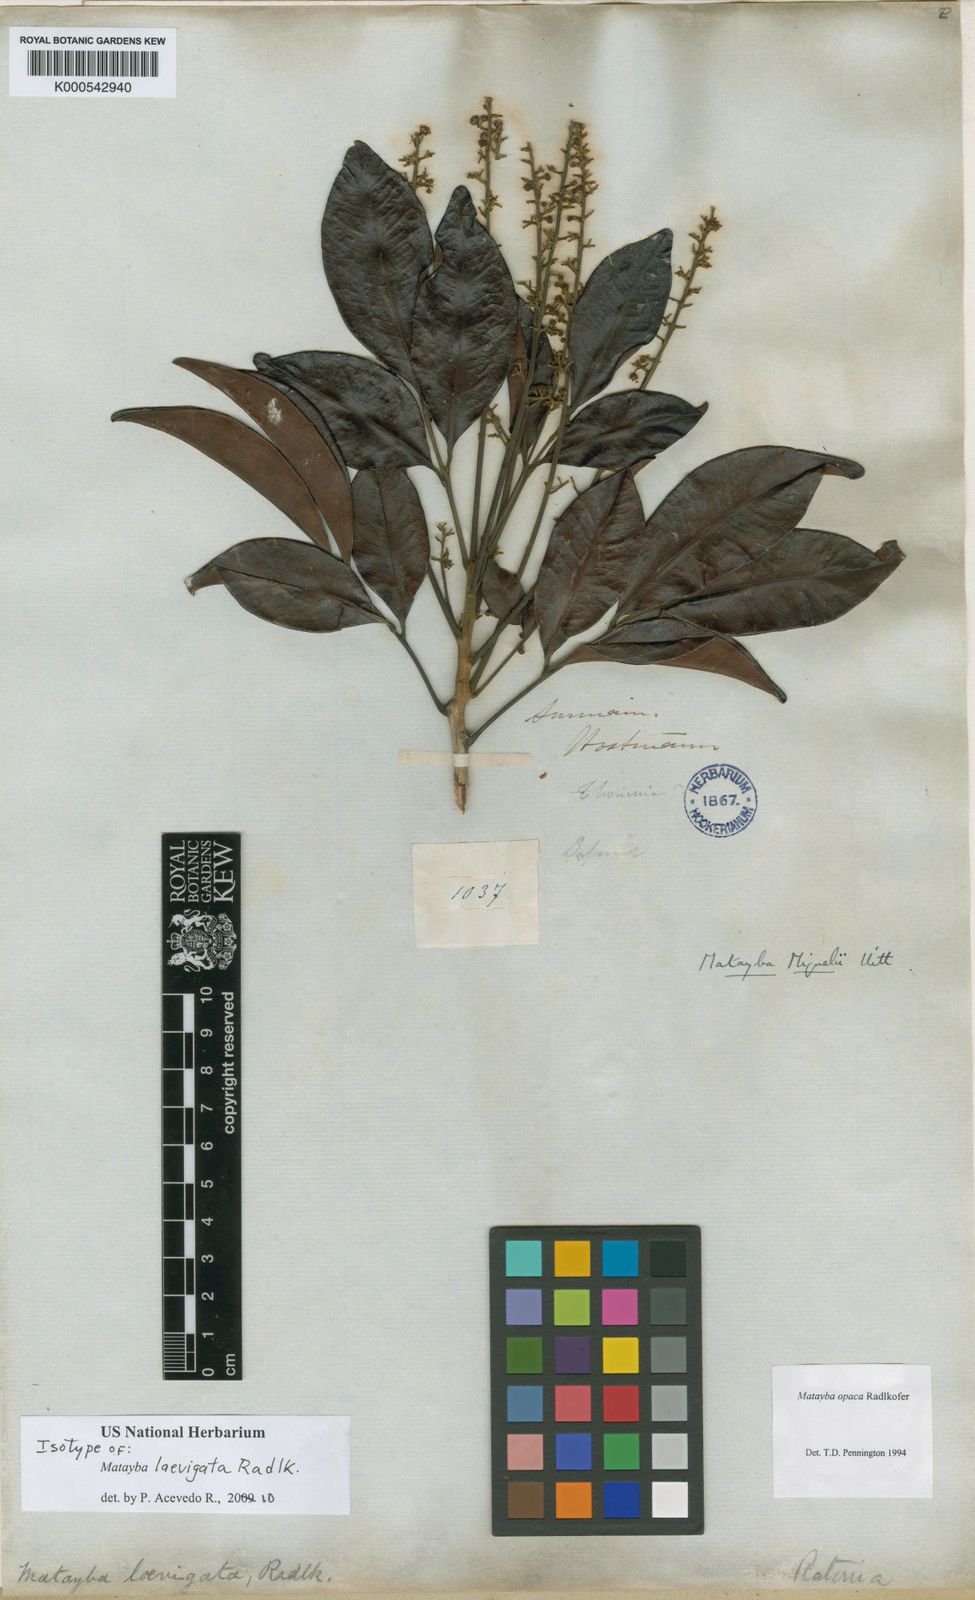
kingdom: Plantae
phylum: Tracheophyta
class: Magnoliopsida
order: Sapindales
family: Sapindaceae
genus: Matayba
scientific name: Matayba laevigata
